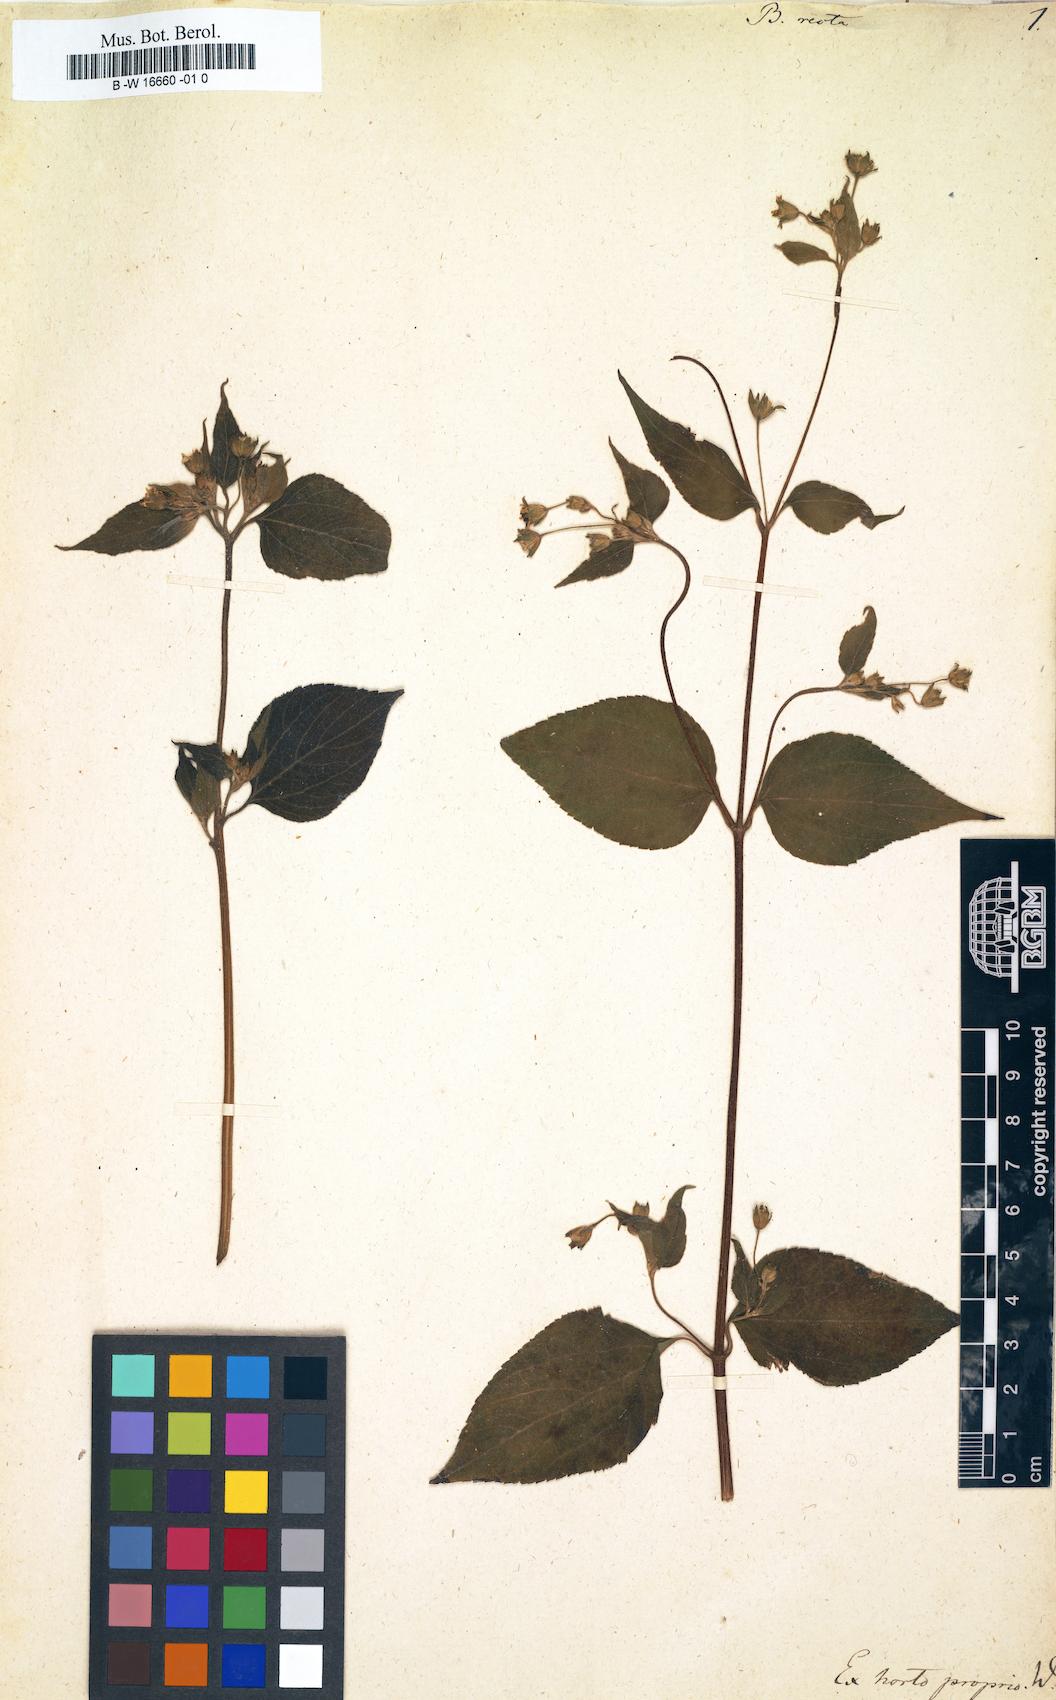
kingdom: Plantae
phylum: Tracheophyta
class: Magnoliopsida
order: Asterales
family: Asteraceae
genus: Baltimora
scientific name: Baltimora recta
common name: Beautyhead
